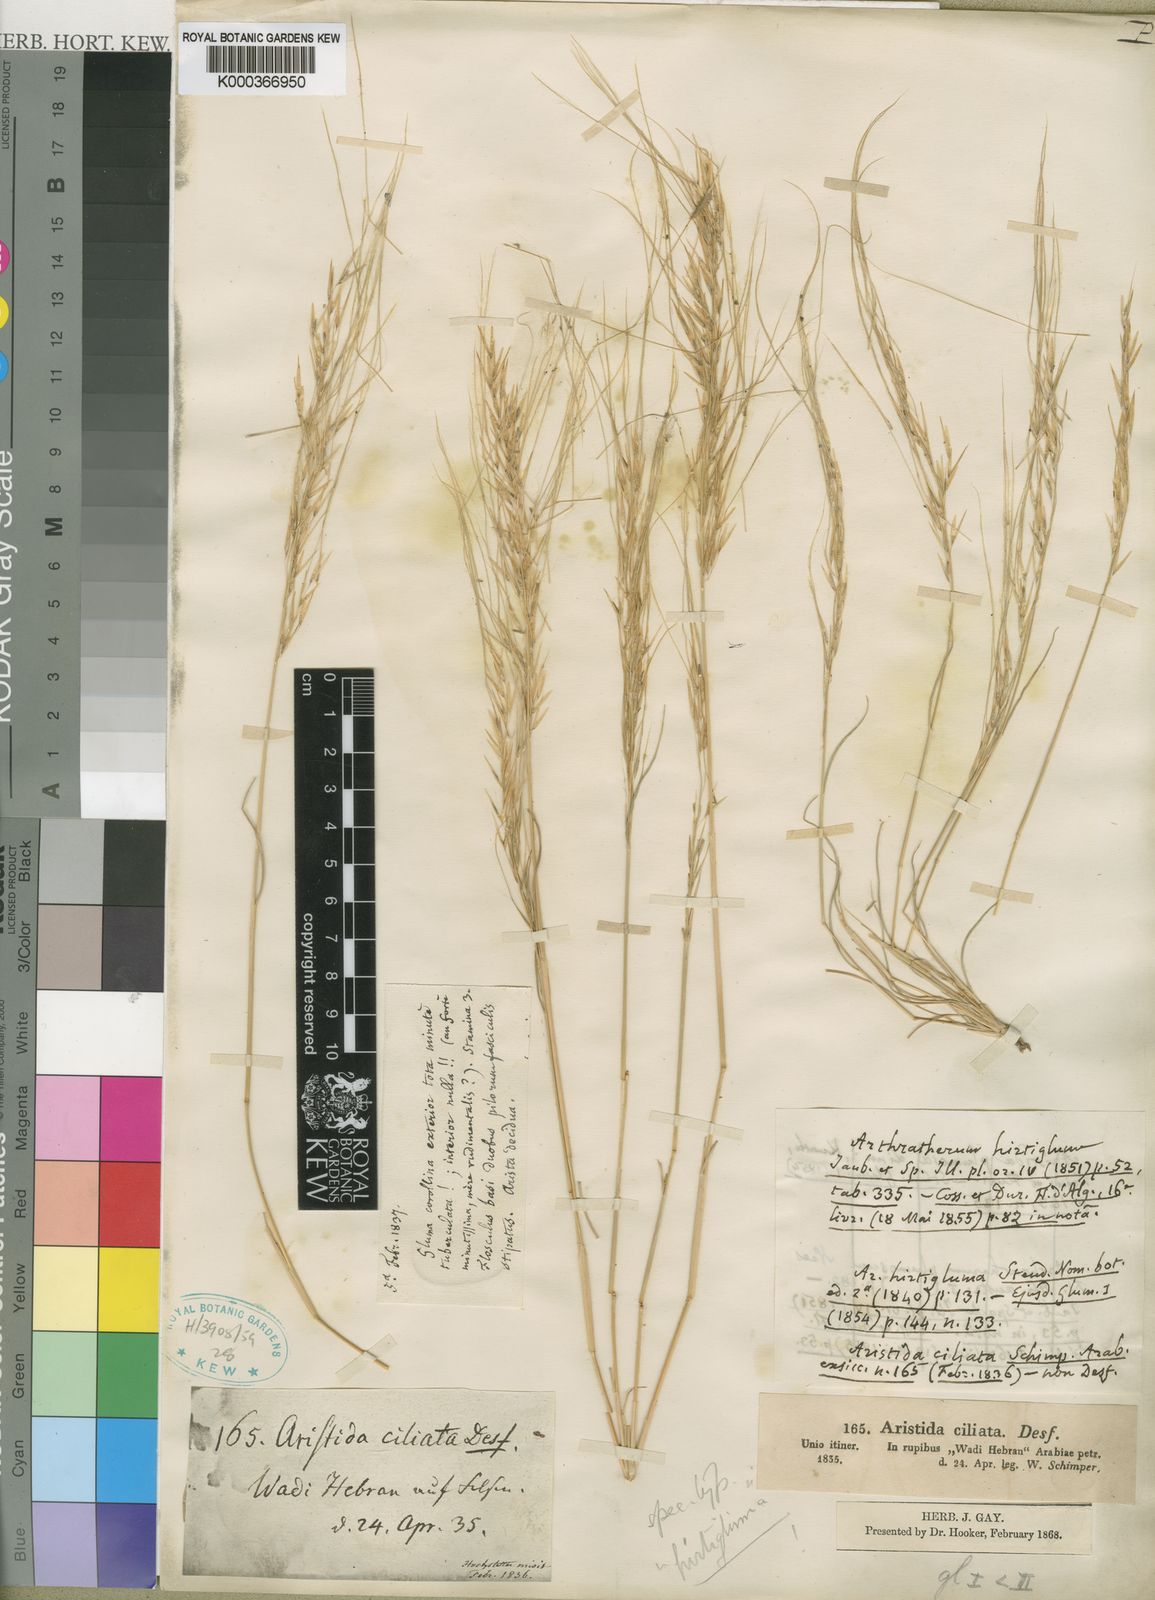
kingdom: Plantae
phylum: Tracheophyta
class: Liliopsida
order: Poales
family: Poaceae
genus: Stipagrostis
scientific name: Stipagrostis hirtigluma
